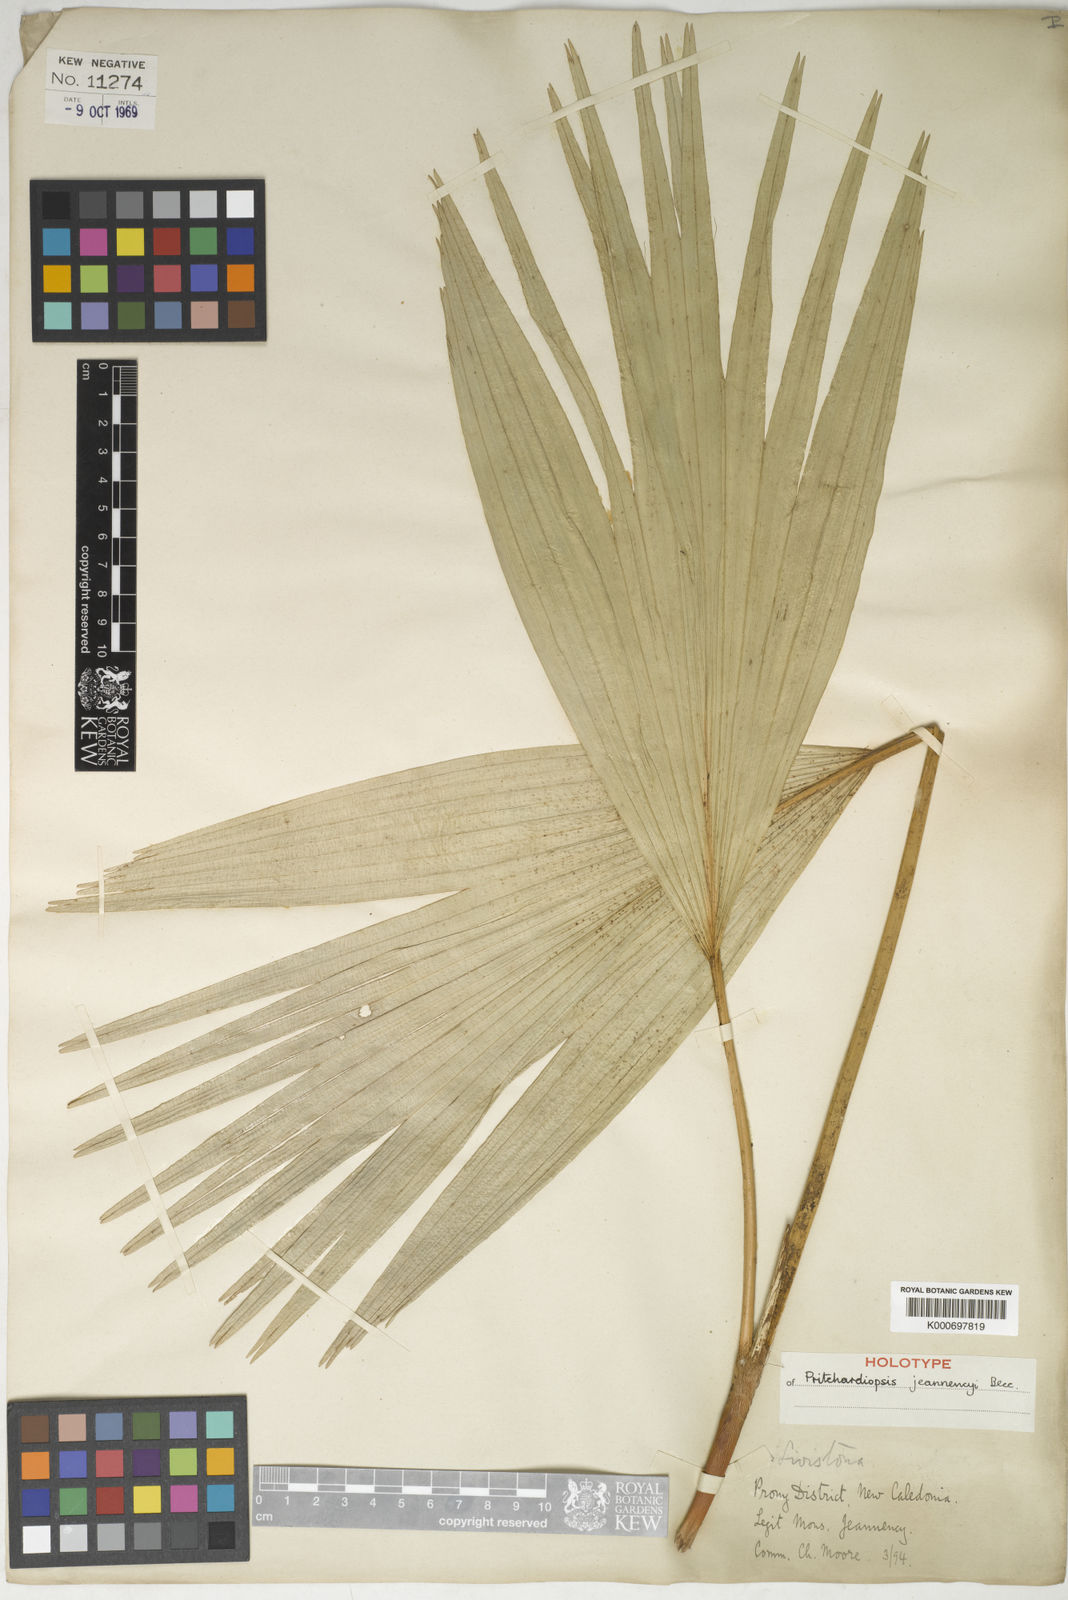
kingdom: Plantae
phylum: Tracheophyta
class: Liliopsida
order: Arecales
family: Arecaceae
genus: Saribus
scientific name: Saribus jeanneneyi
